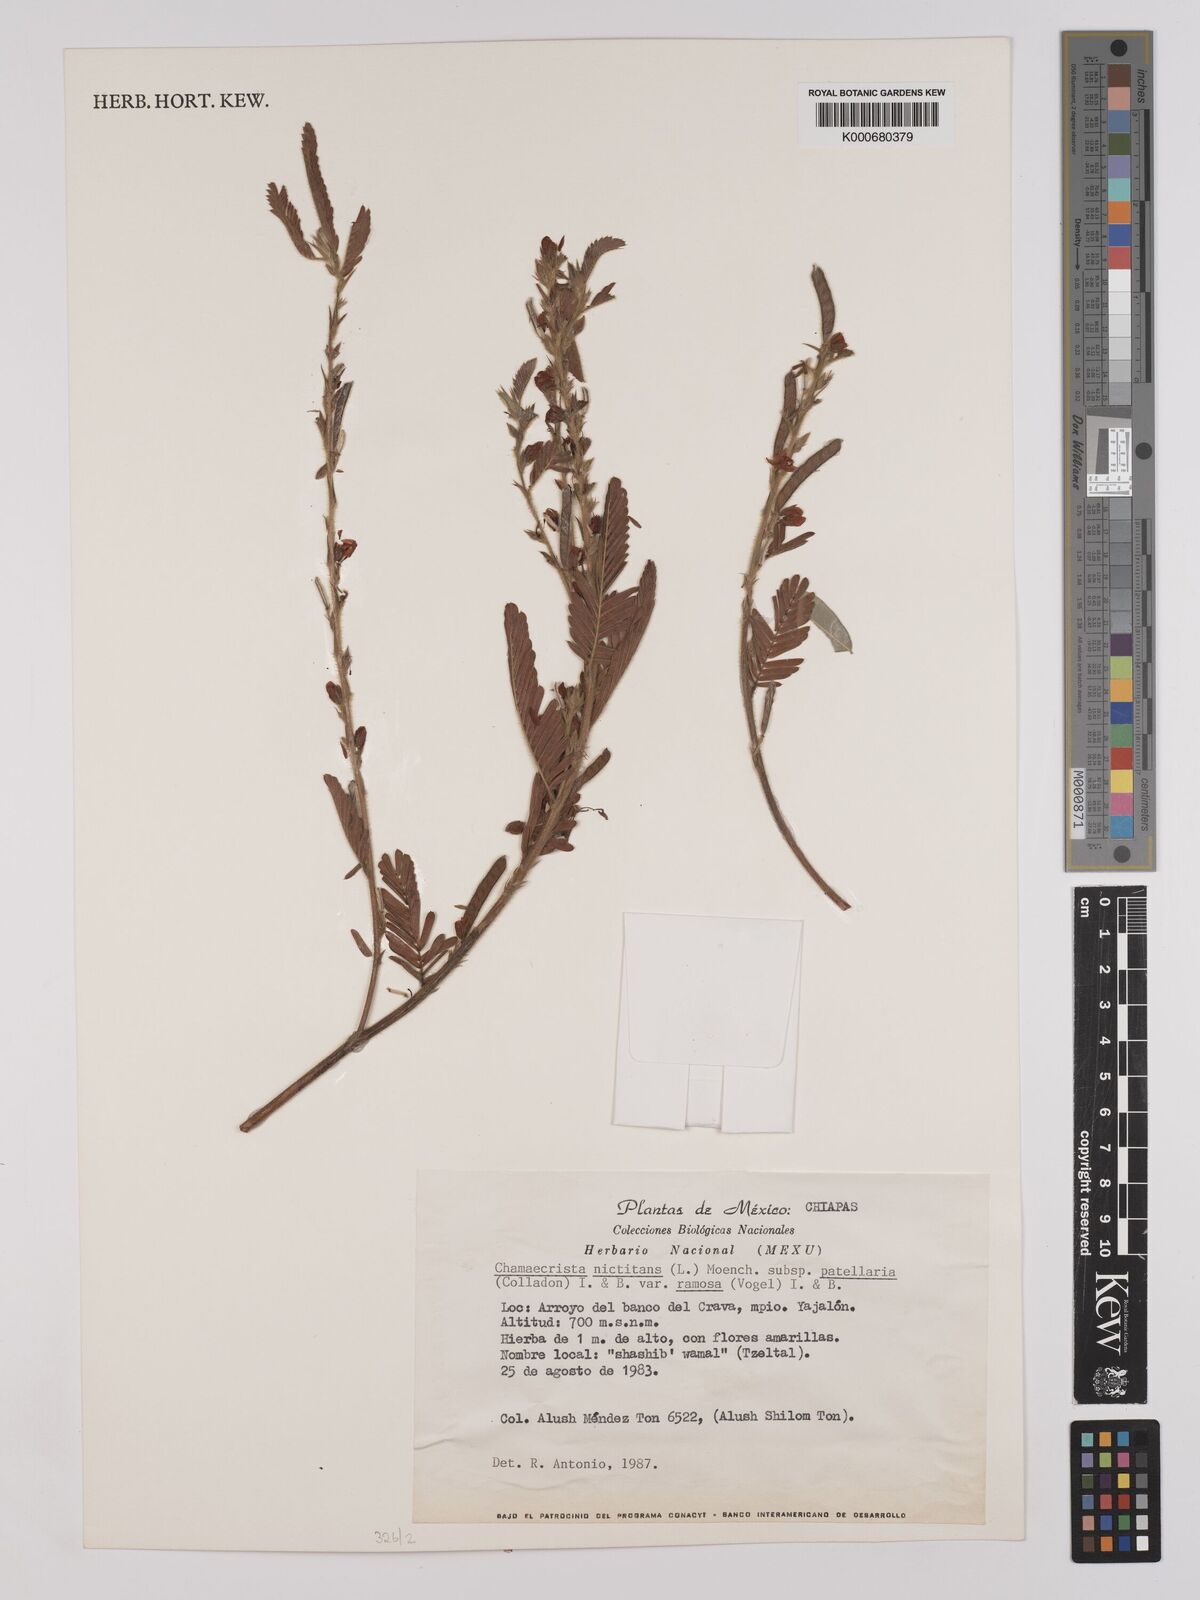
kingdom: Plantae
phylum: Tracheophyta
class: Magnoliopsida
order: Fabales
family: Fabaceae
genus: Chamaecrista
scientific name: Chamaecrista nictitans
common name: Sensitive cassia
